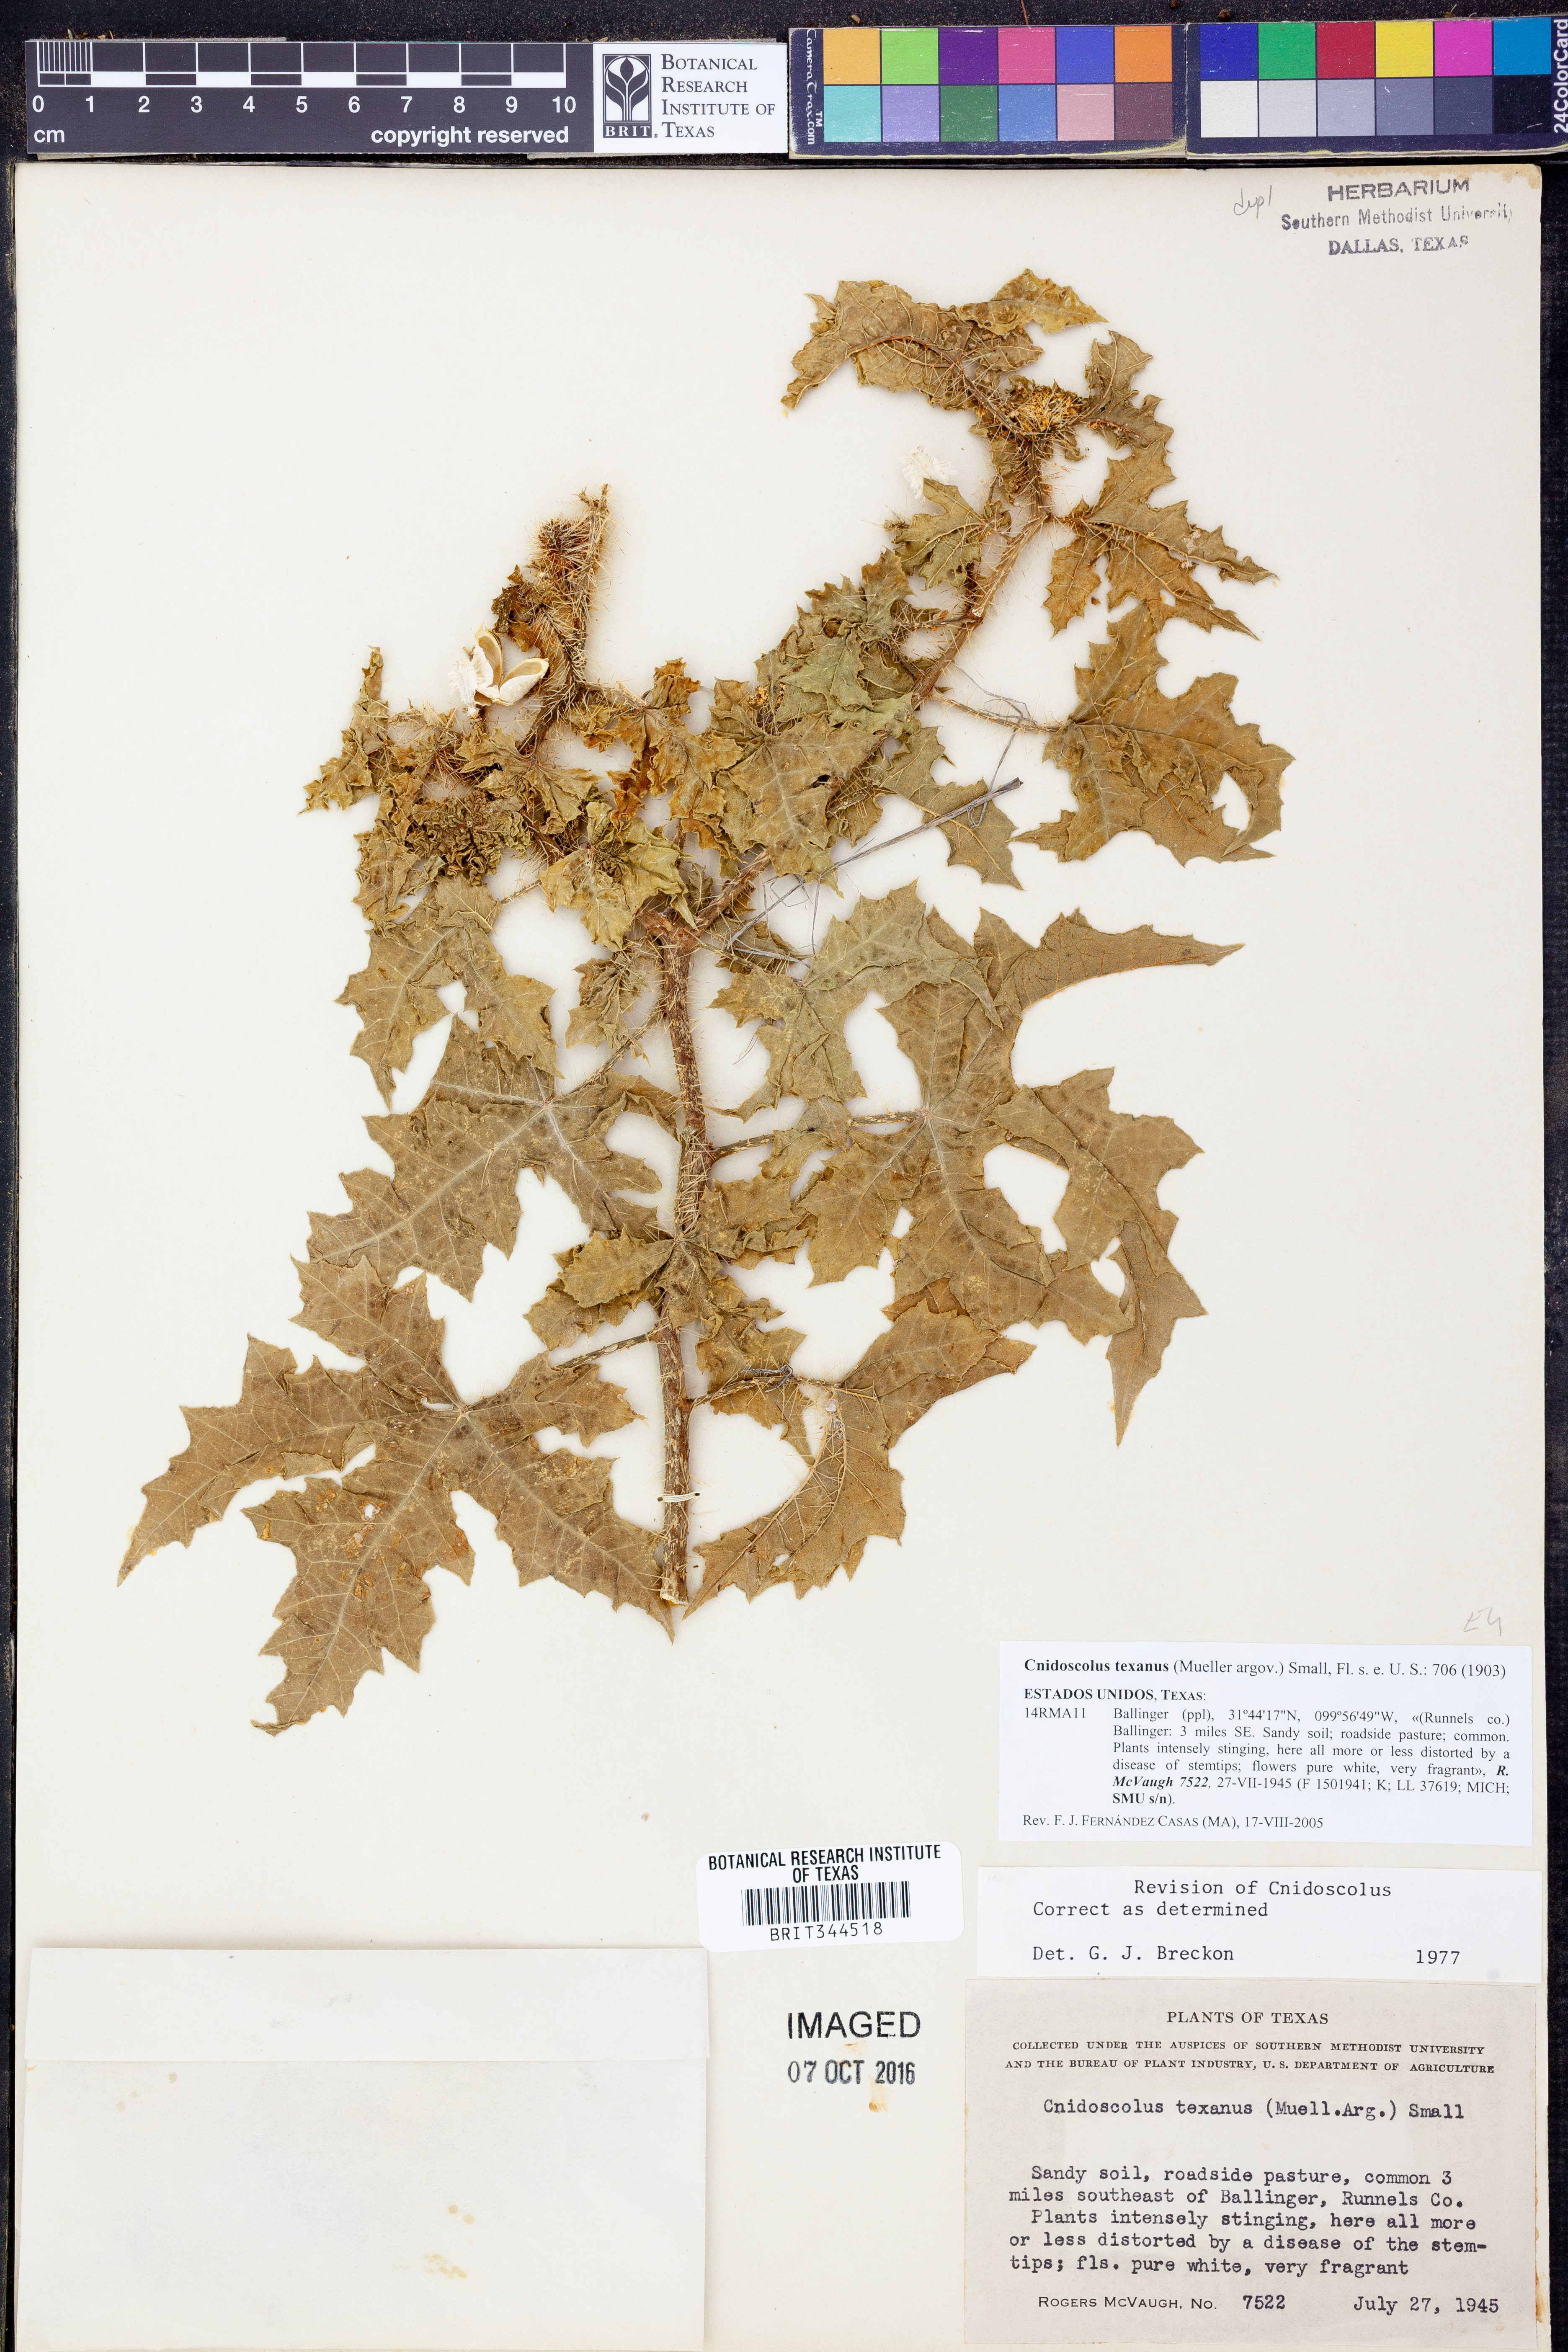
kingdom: Plantae
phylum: Tracheophyta
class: Magnoliopsida
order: Malpighiales
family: Euphorbiaceae
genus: Cnidoscolus
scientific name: Cnidoscolus texanus
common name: Texas bull-nettle
